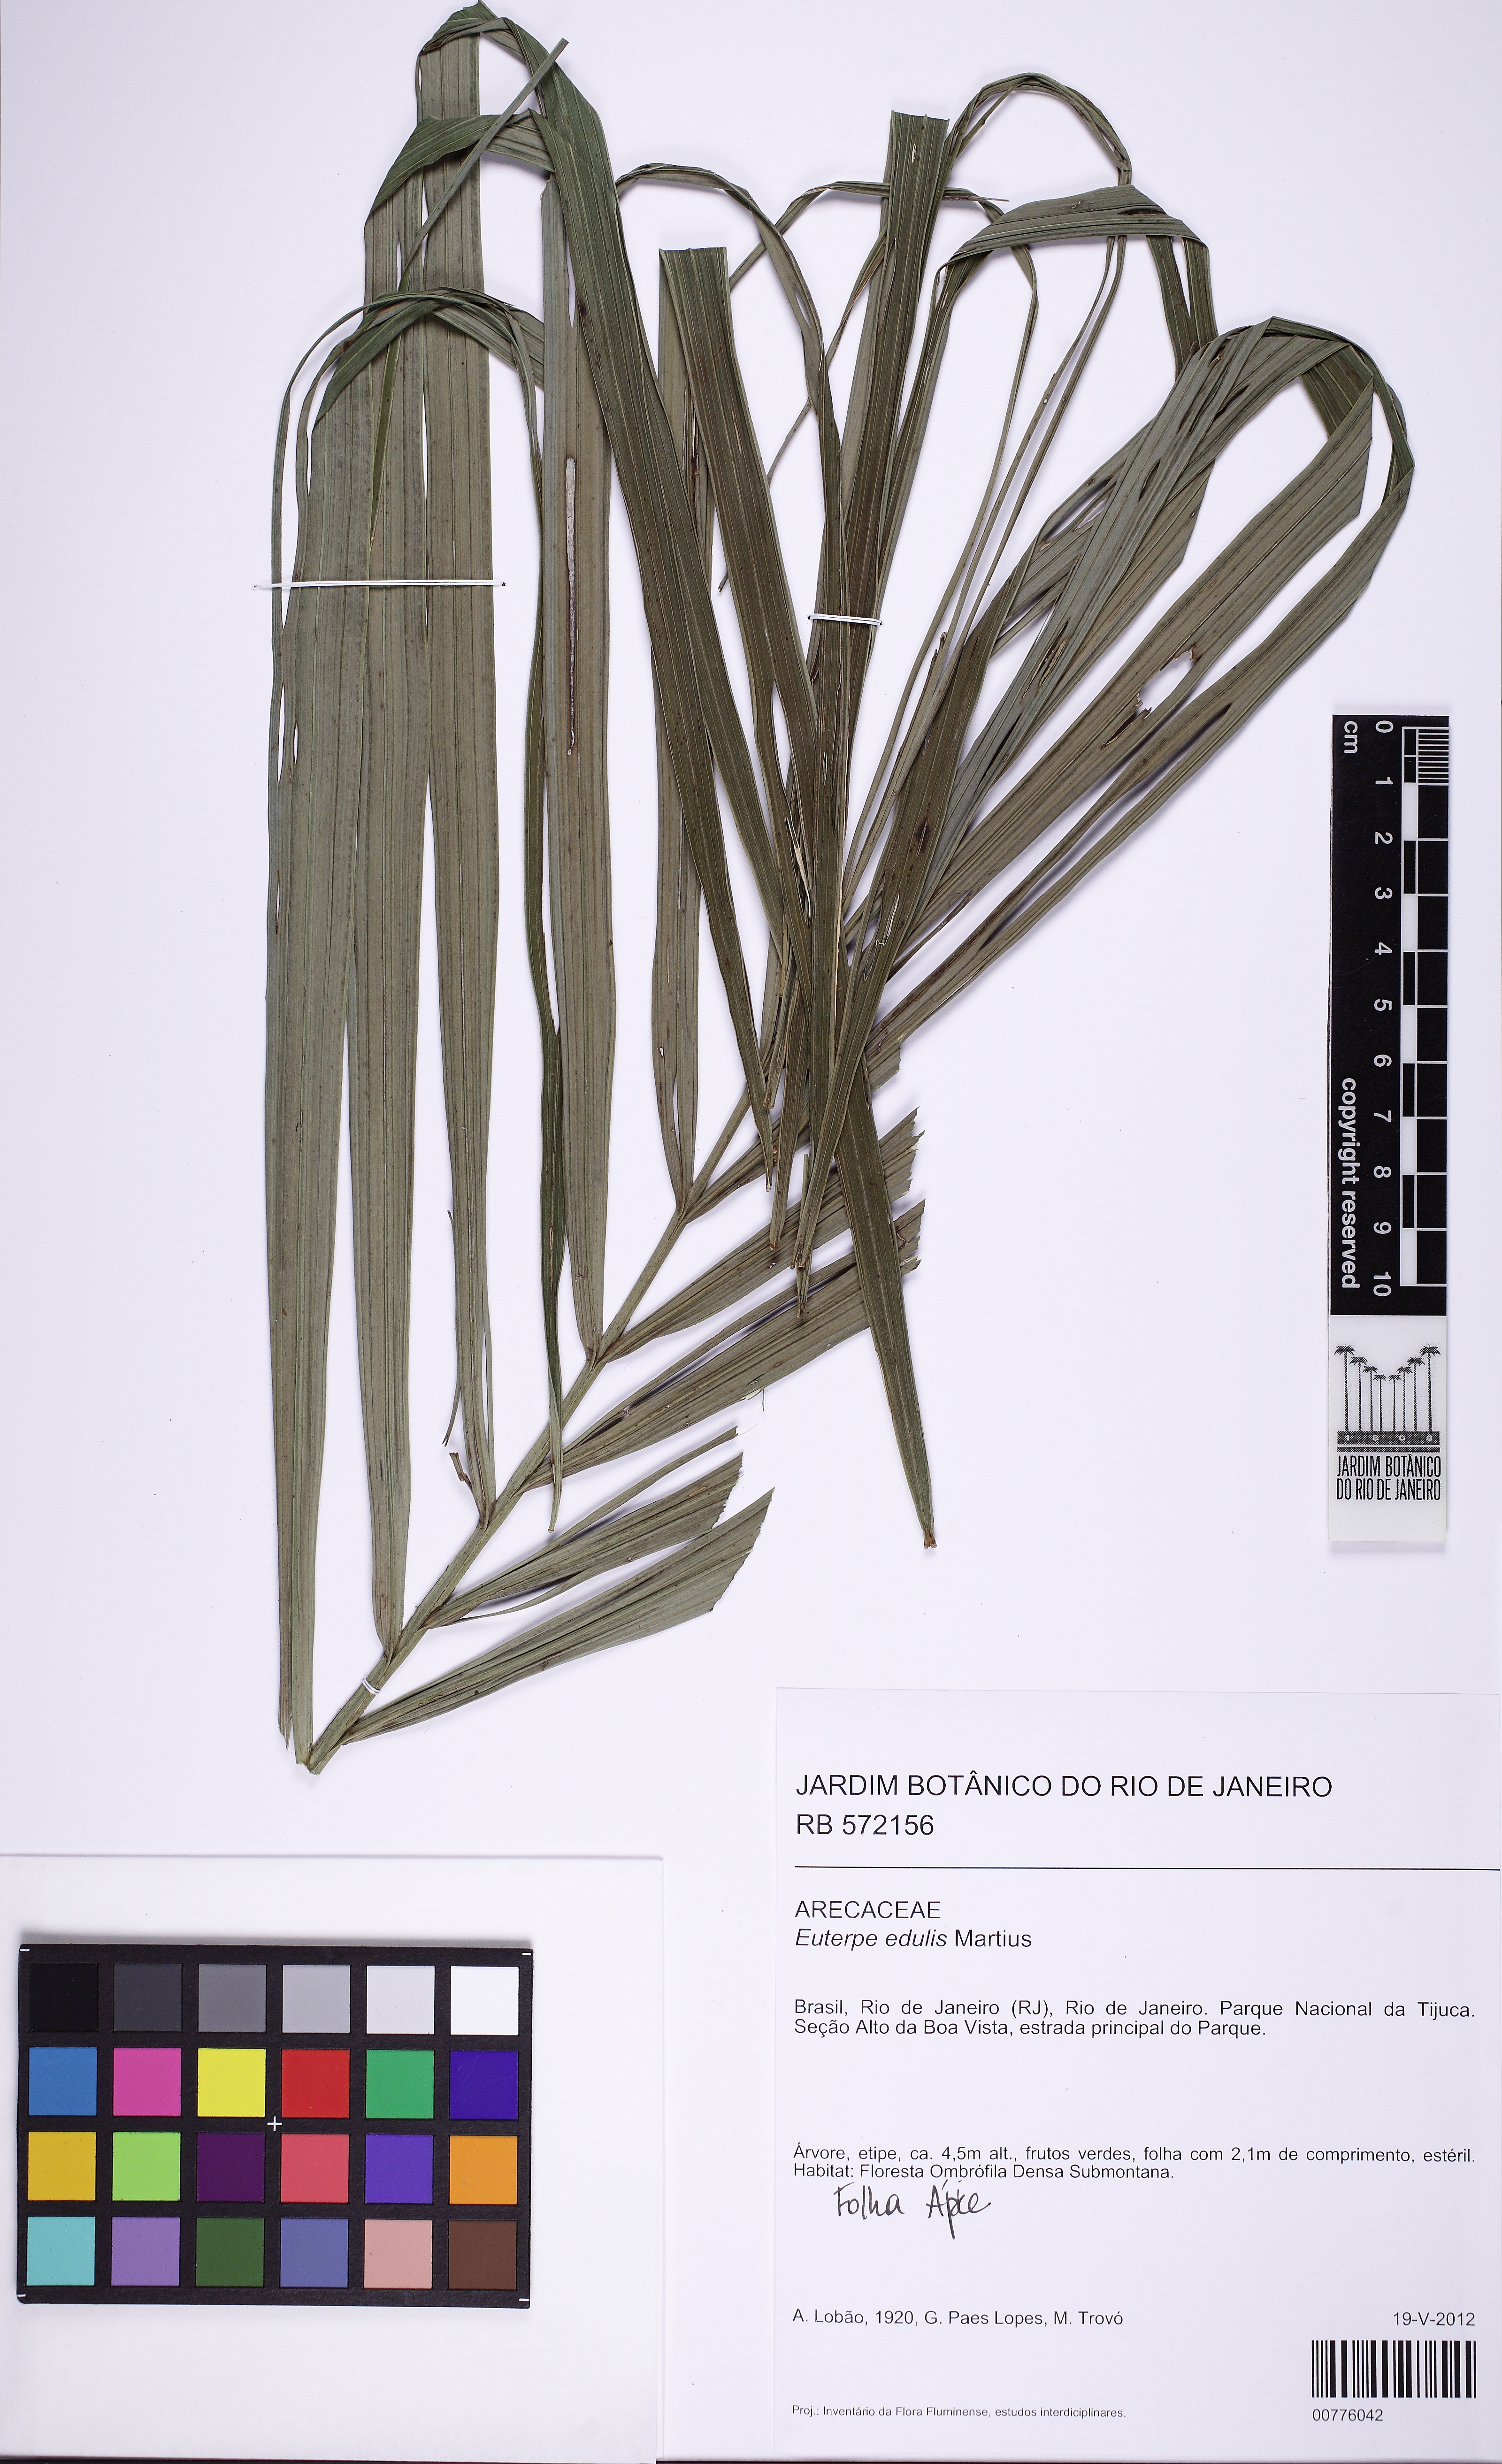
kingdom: Plantae
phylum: Tracheophyta
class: Liliopsida
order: Arecales
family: Arecaceae
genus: Euterpe
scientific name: Euterpe edulis
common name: Assai palm
